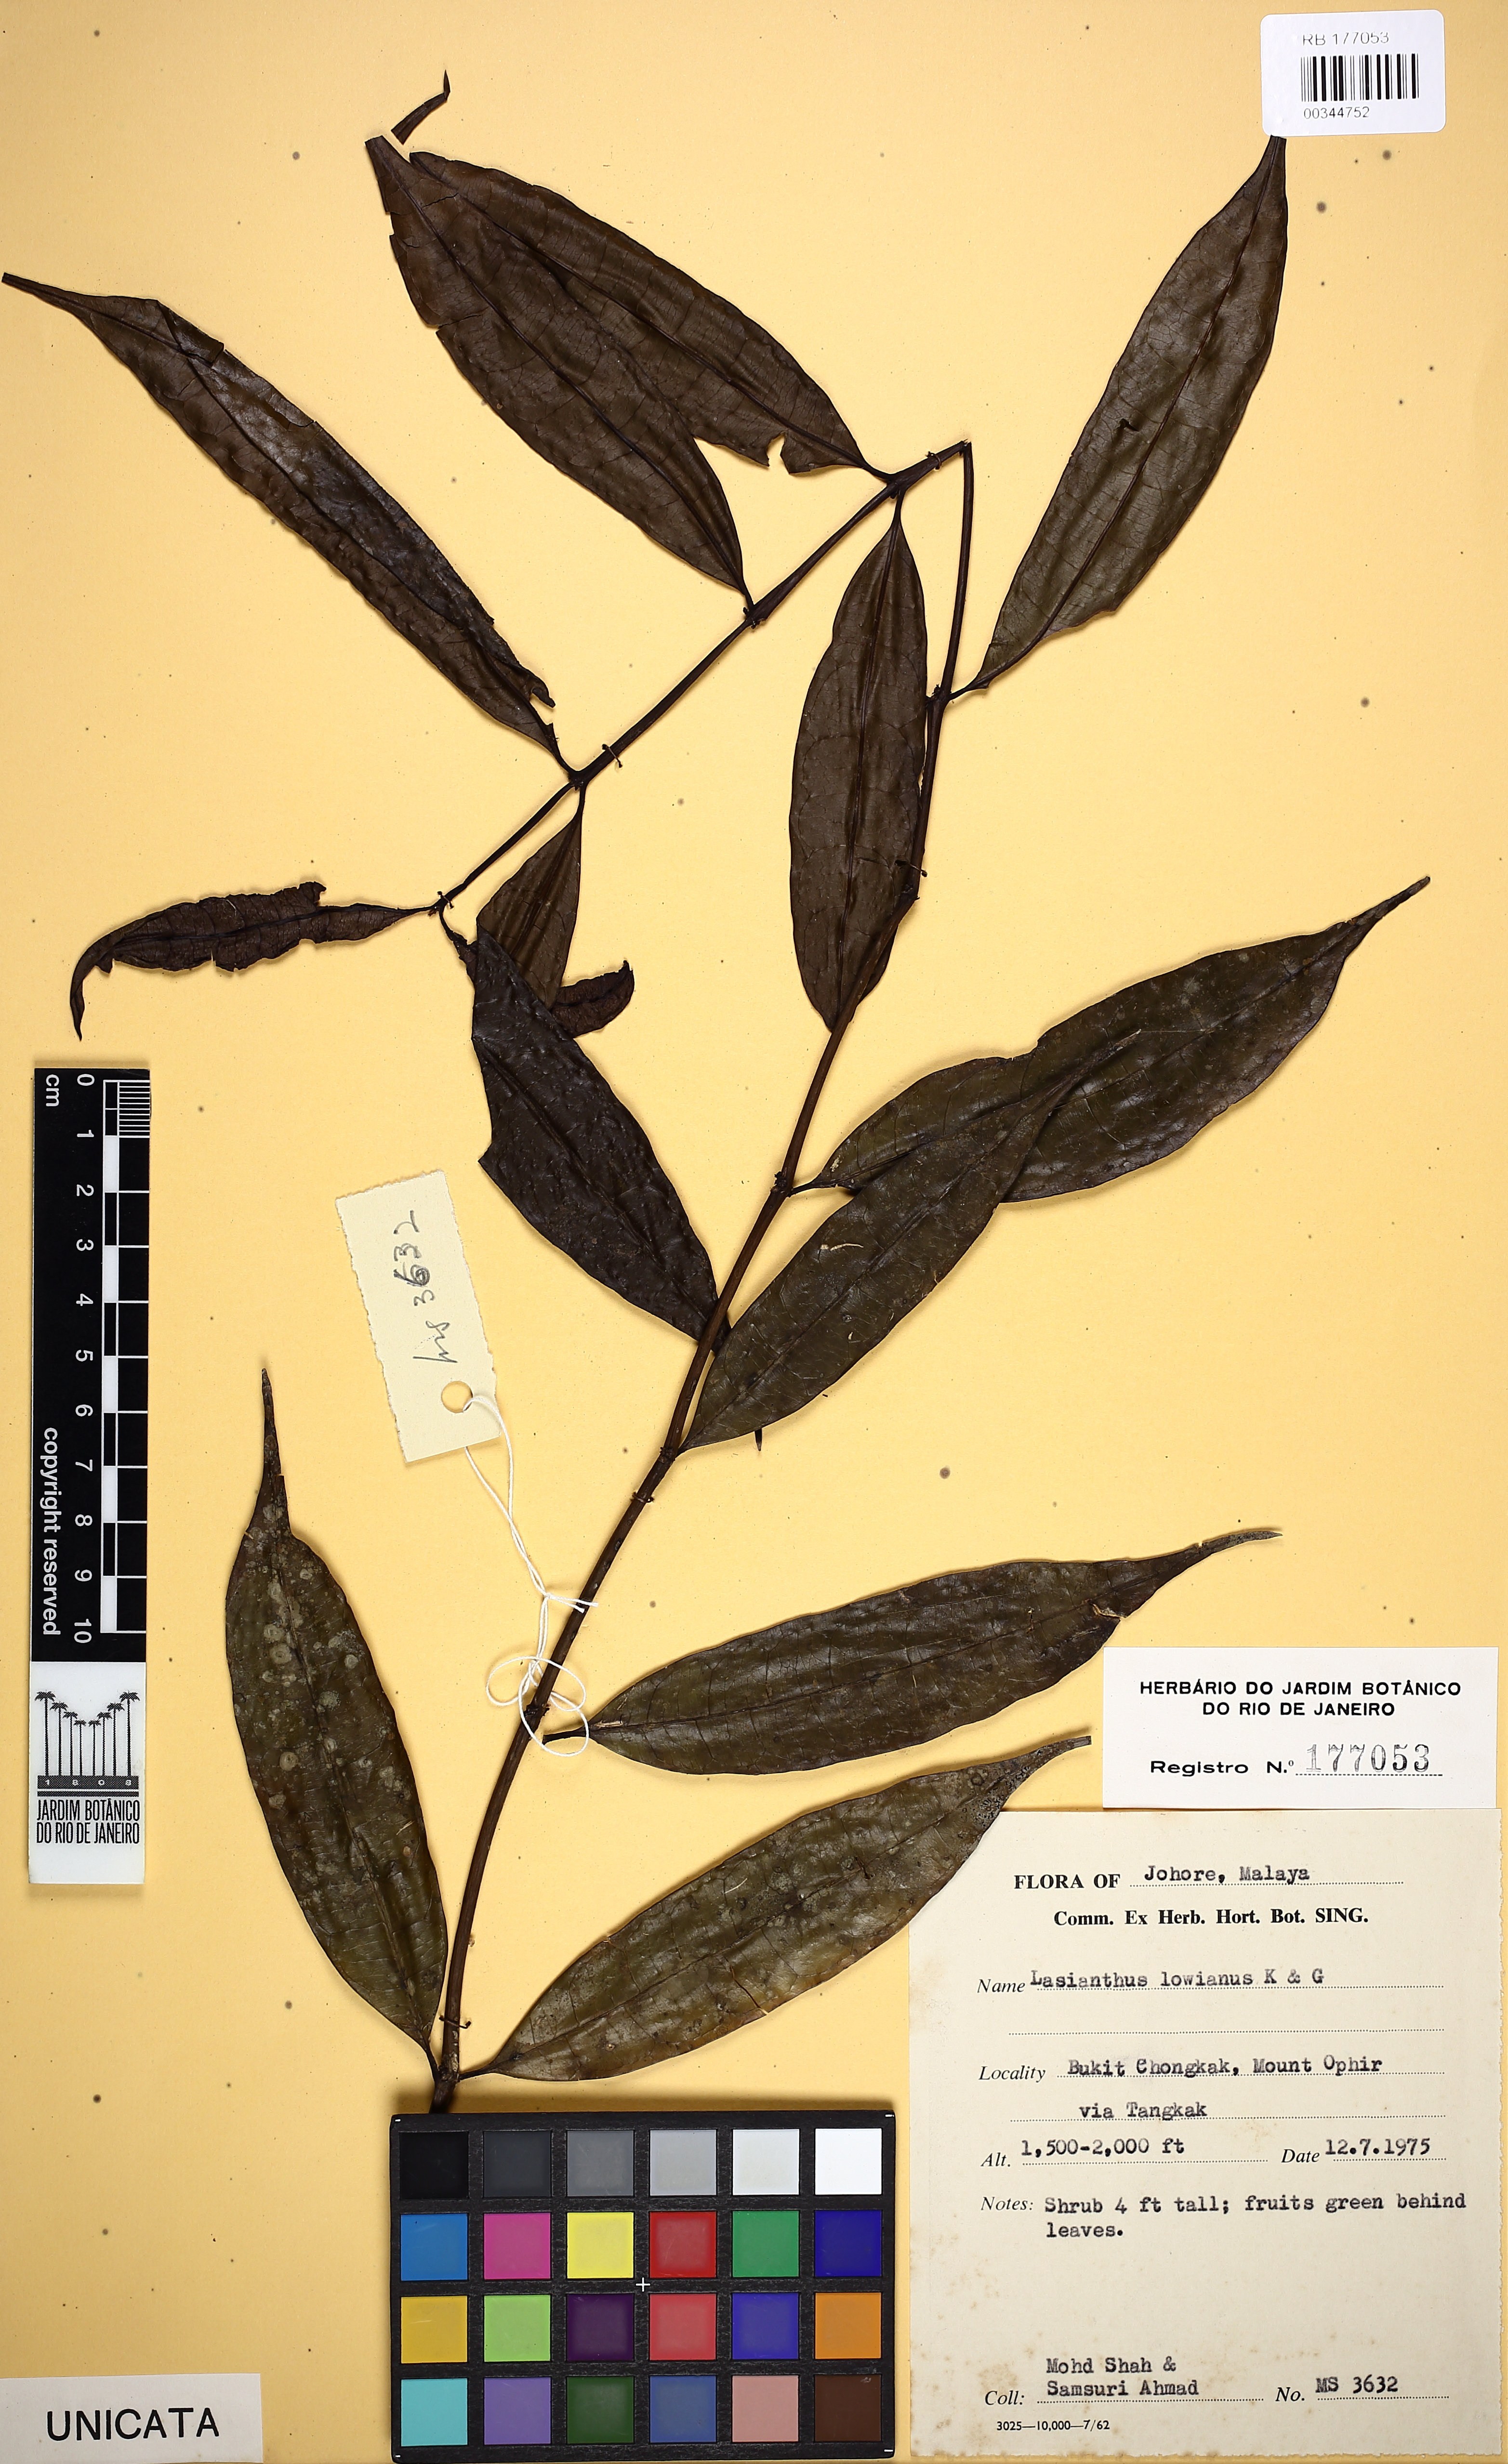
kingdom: Plantae
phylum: Tracheophyta
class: Magnoliopsida
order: Gentianales
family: Rubiaceae
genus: Paralasianthus
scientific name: Paralasianthus lowianus
